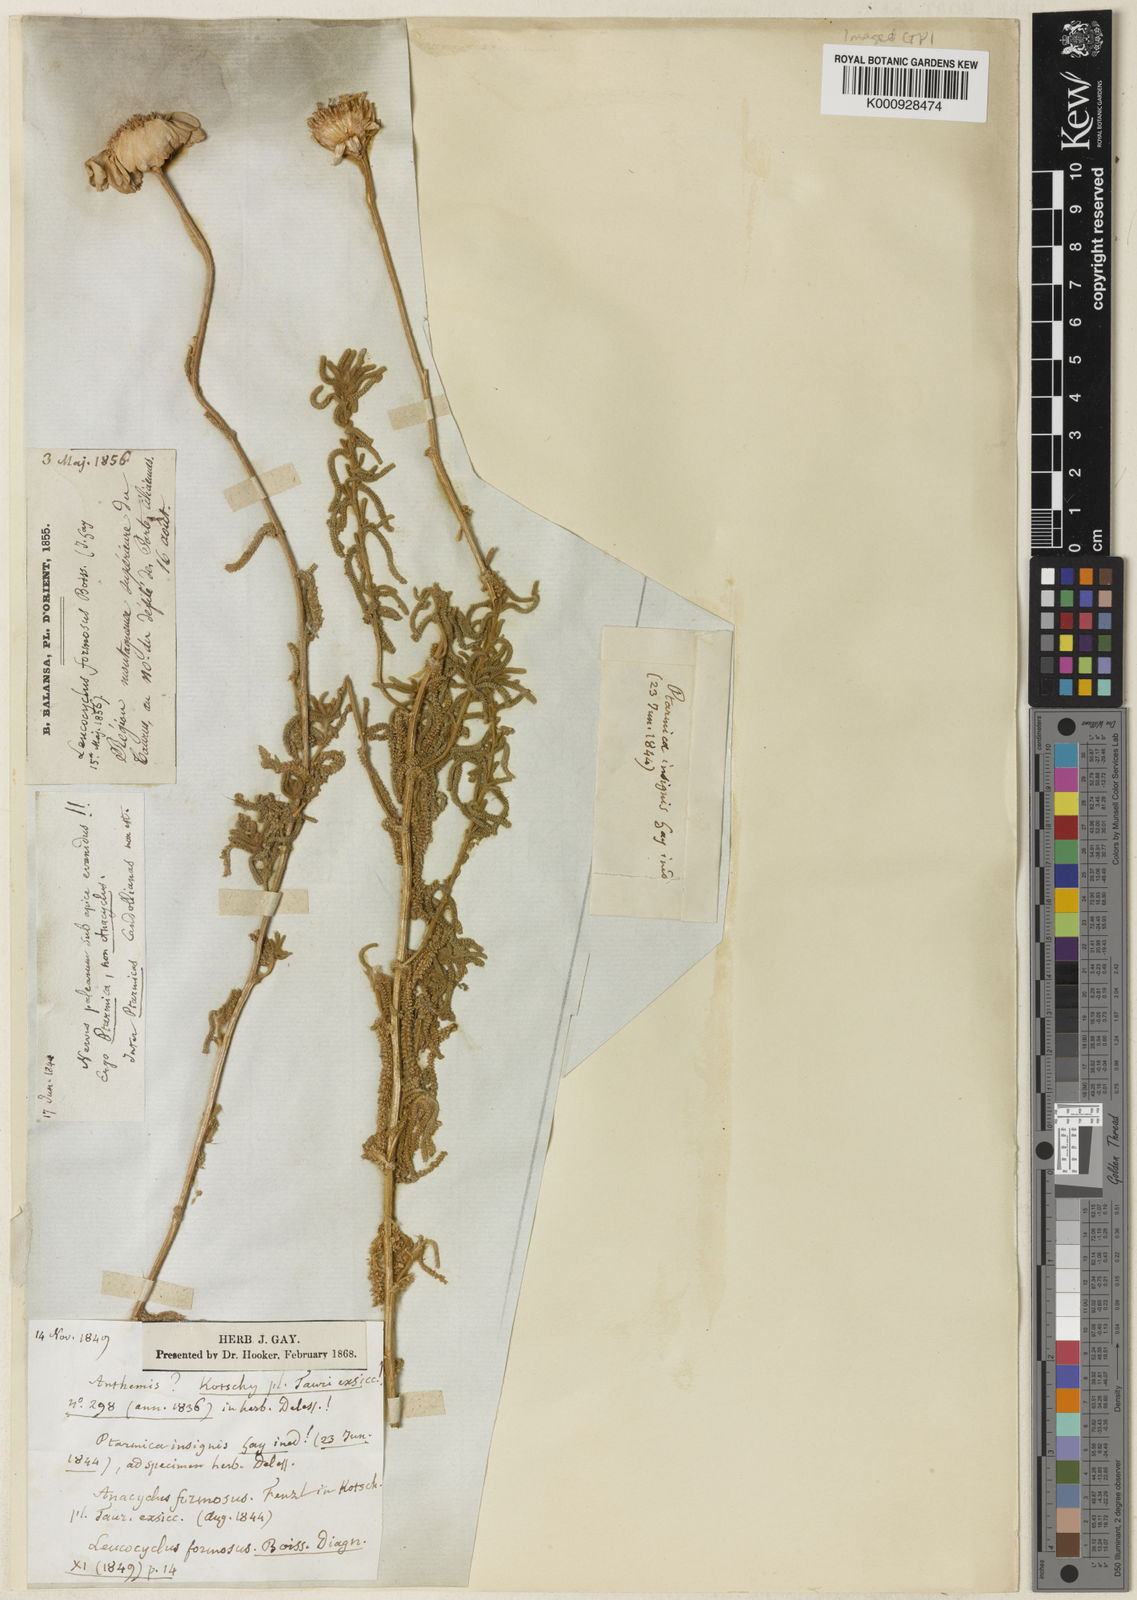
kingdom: Plantae
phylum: Tracheophyta
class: Magnoliopsida
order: Asterales
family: Asteraceae
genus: Achillea
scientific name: Achillea formosa
